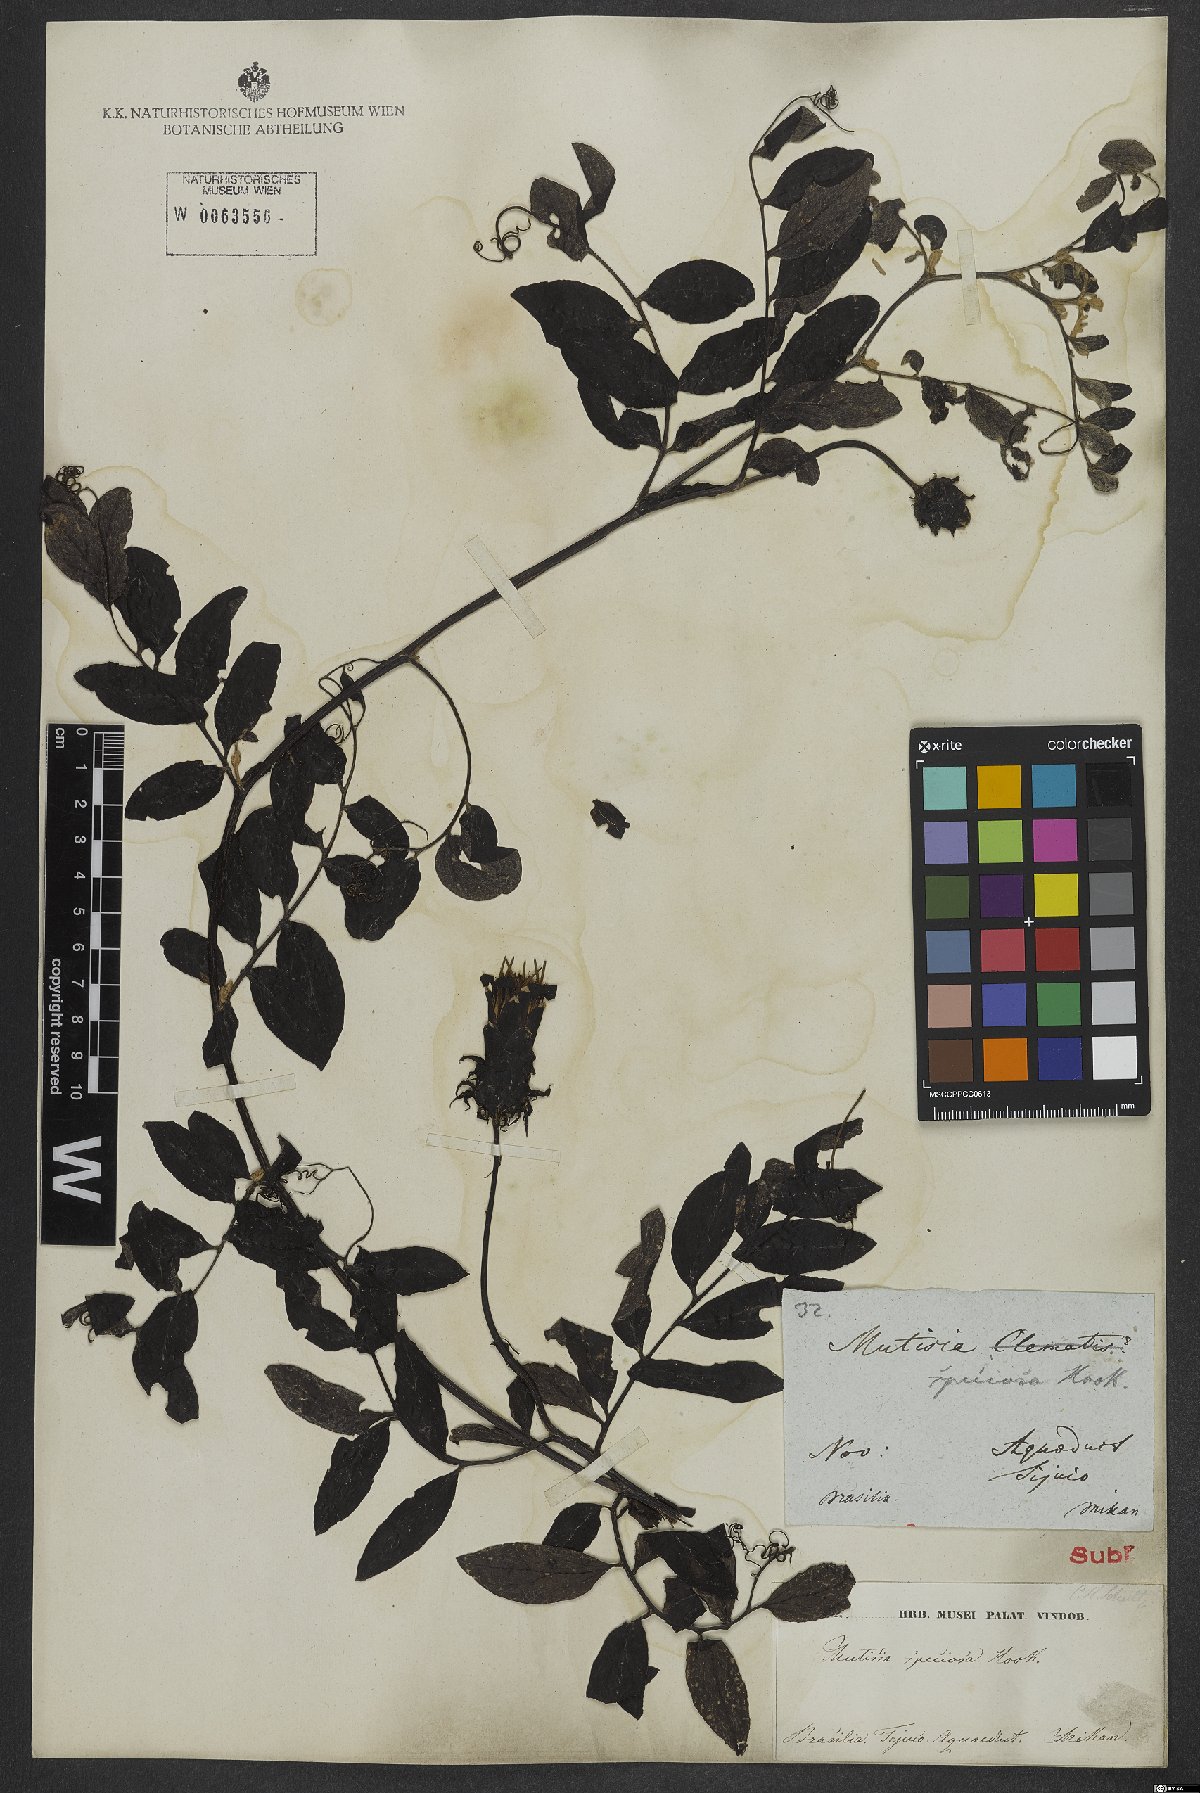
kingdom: Plantae
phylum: Tracheophyta
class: Magnoliopsida
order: Asterales
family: Asteraceae
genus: Mutisia
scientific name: Mutisia speciosa
